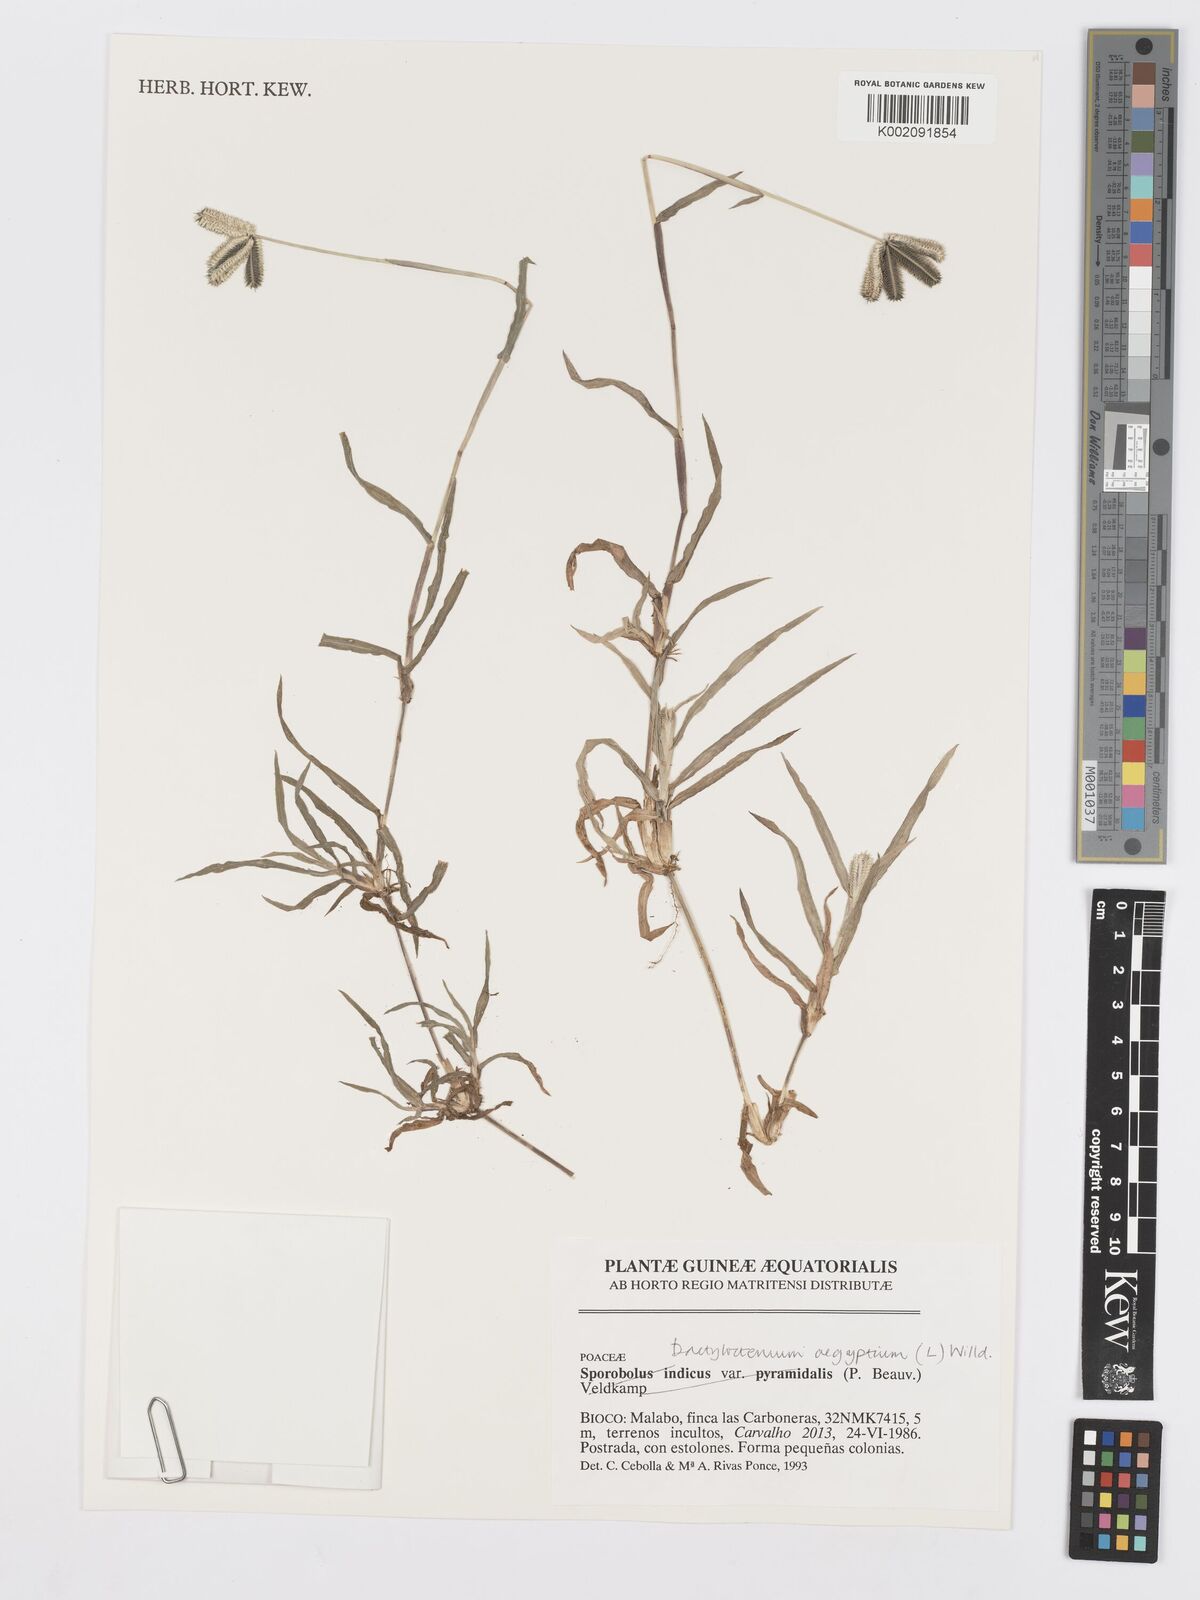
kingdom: Plantae
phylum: Tracheophyta
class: Liliopsida
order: Poales
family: Poaceae
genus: Dactyloctenium
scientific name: Dactyloctenium aegyptium
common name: Egyptian grass
